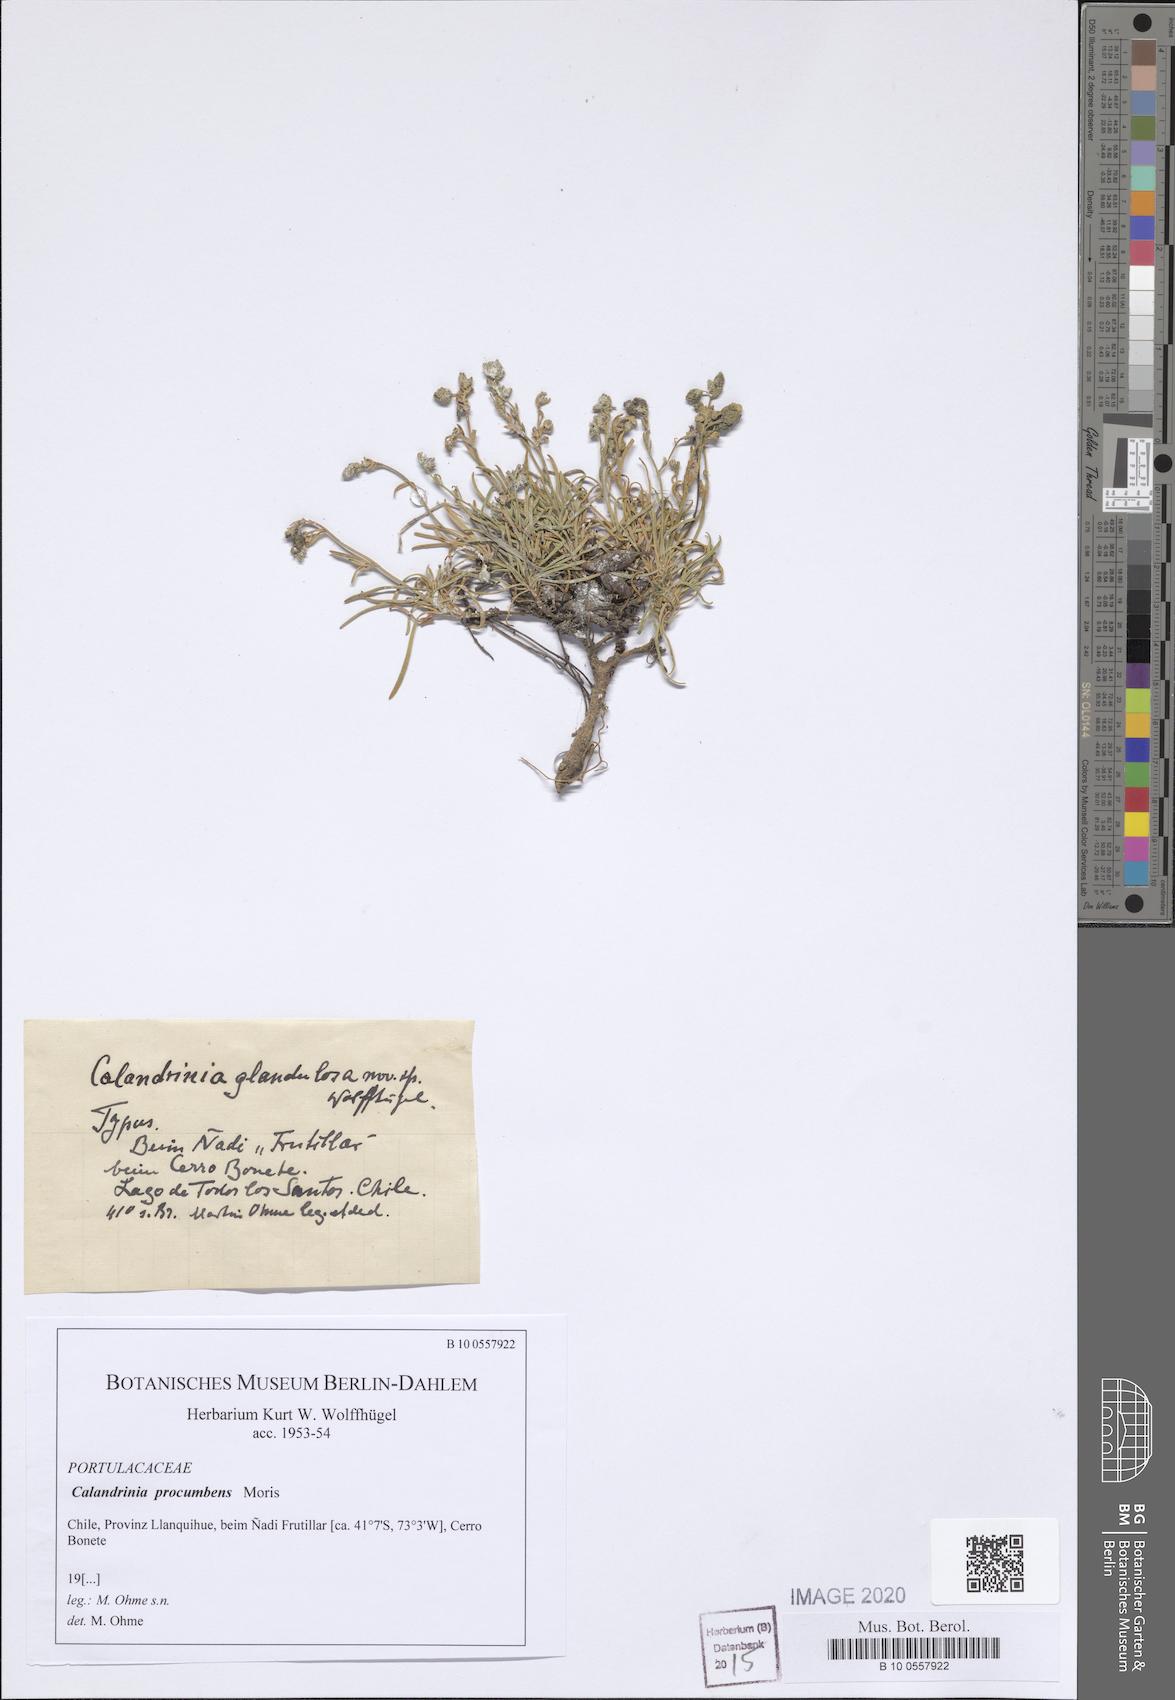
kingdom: Plantae
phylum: Tracheophyta
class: Magnoliopsida
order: Caryophyllales
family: Montiaceae
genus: Calandrinia
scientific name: Calandrinia pilosiuscula
